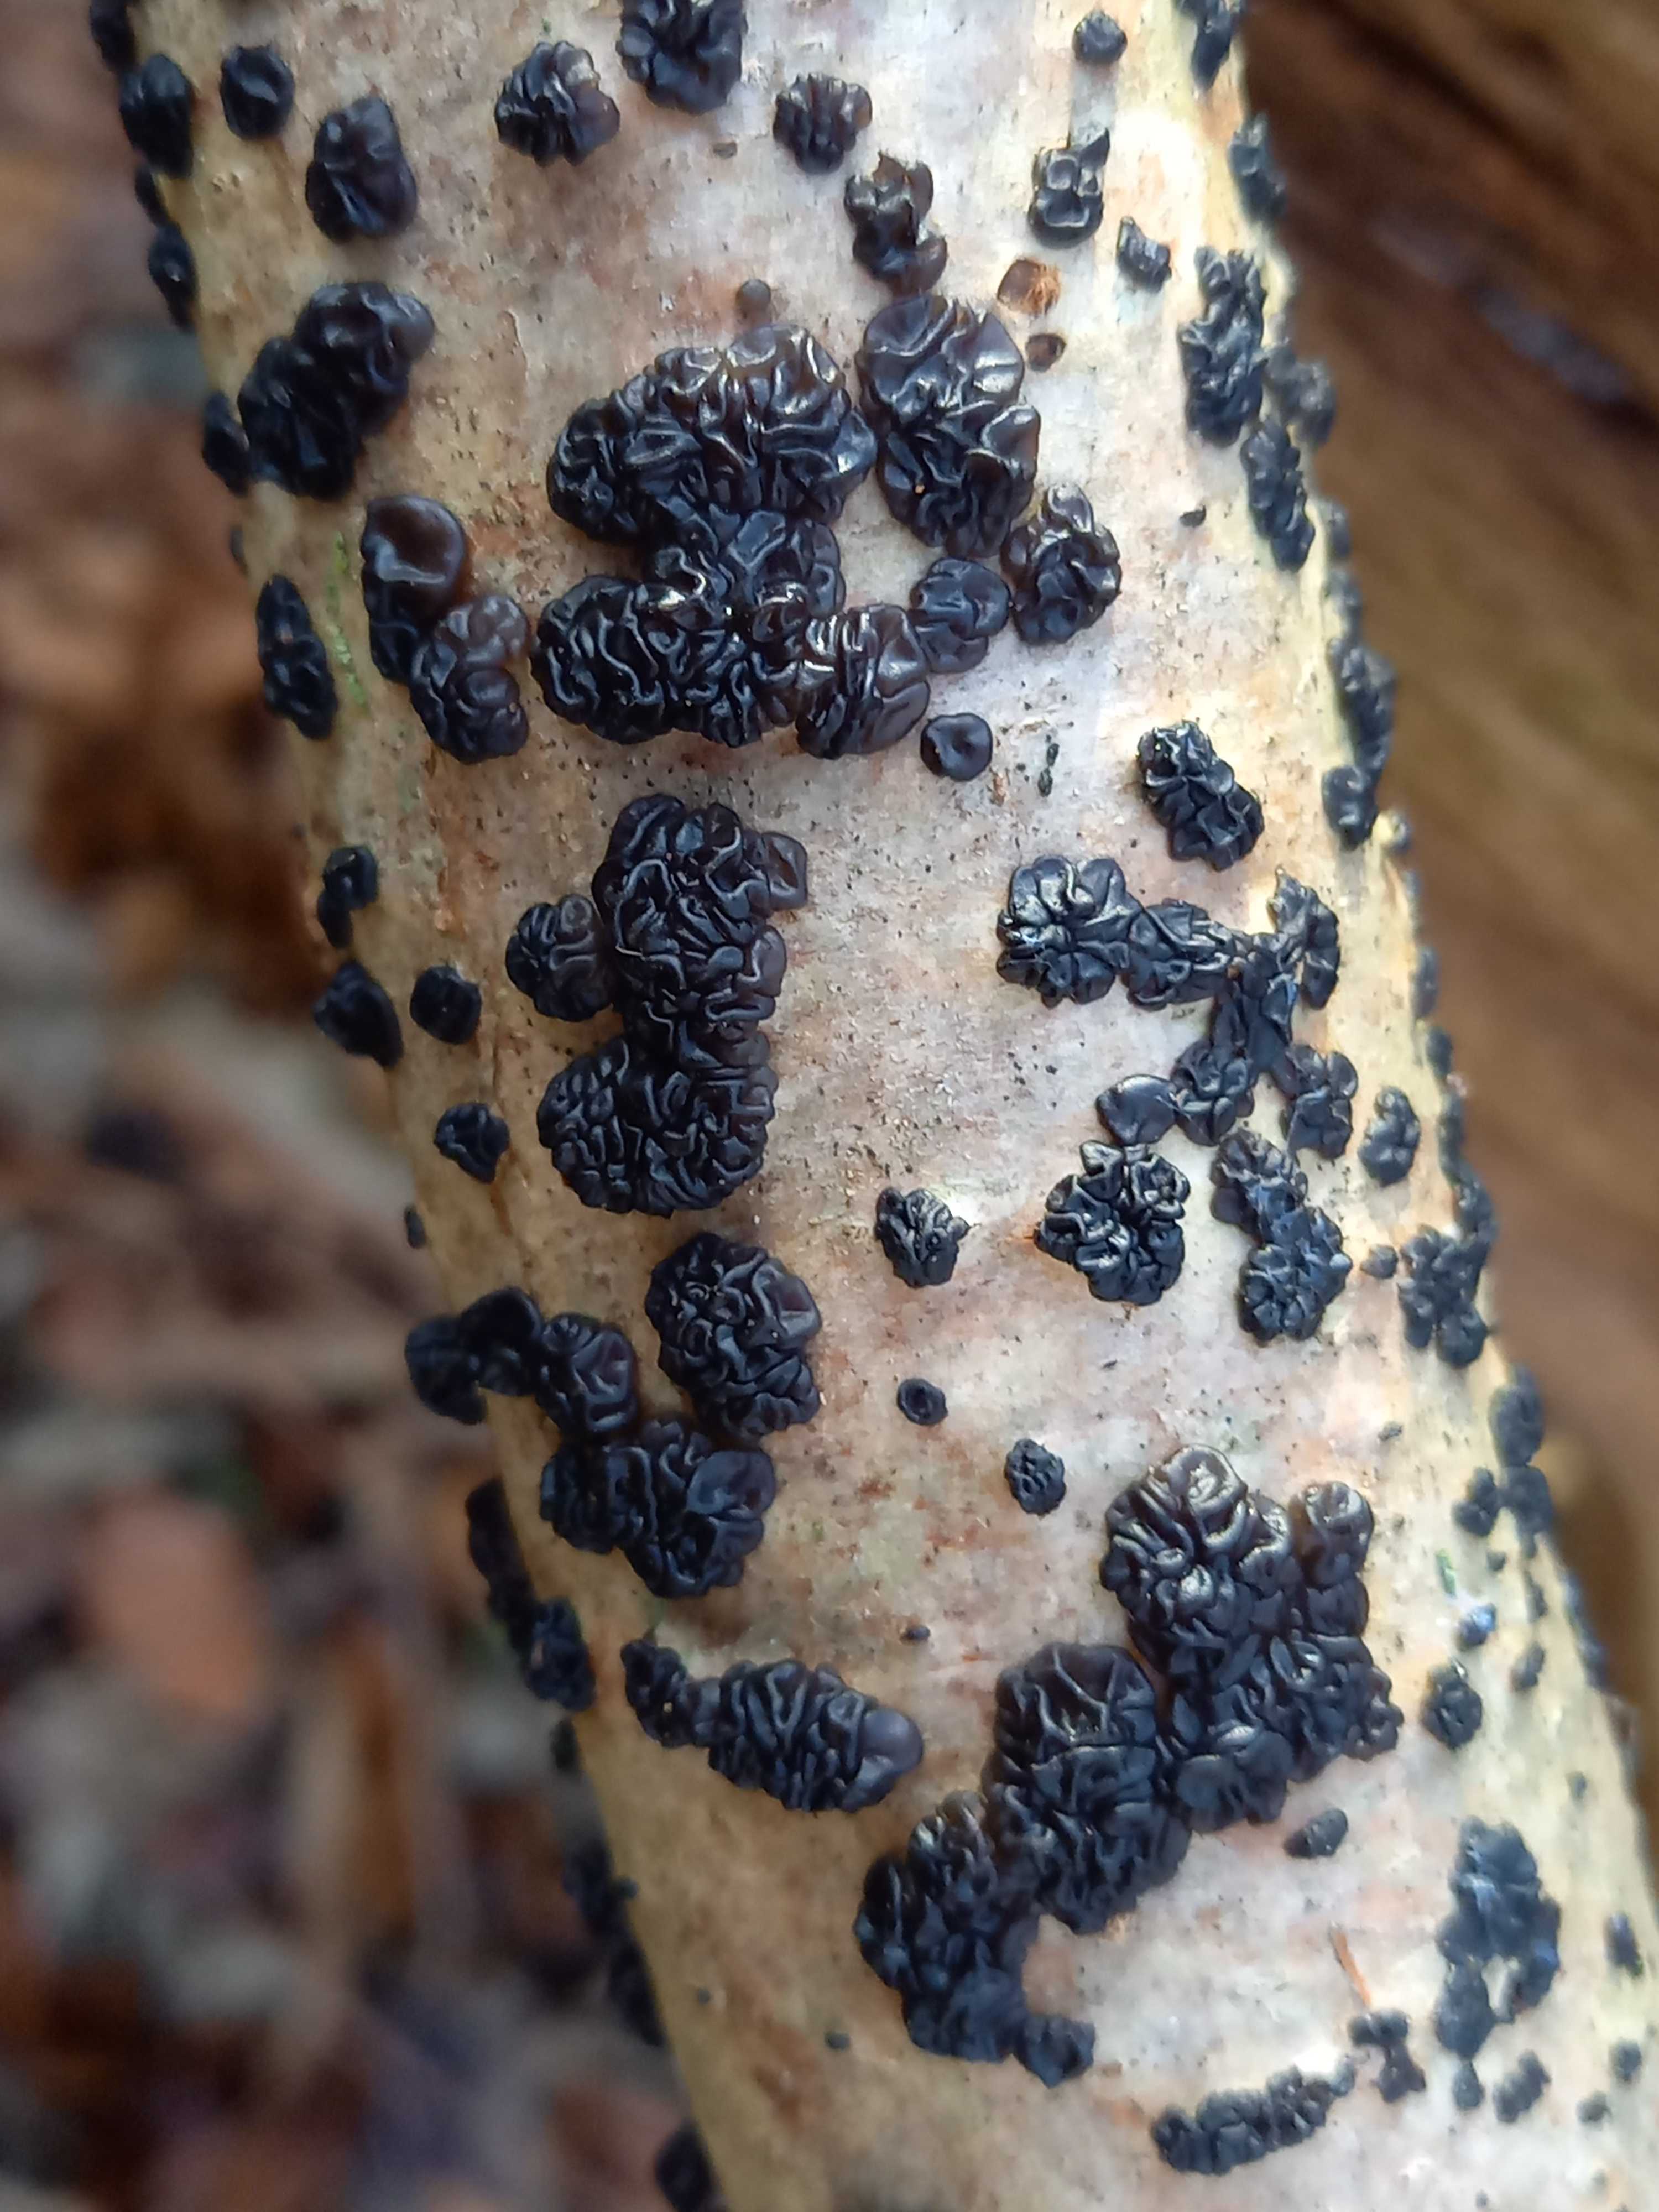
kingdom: Fungi
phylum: Basidiomycota
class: Agaricomycetes
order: Auriculariales
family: Auriculariaceae
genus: Exidia
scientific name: Exidia nigricans
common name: almindelig bævretop
